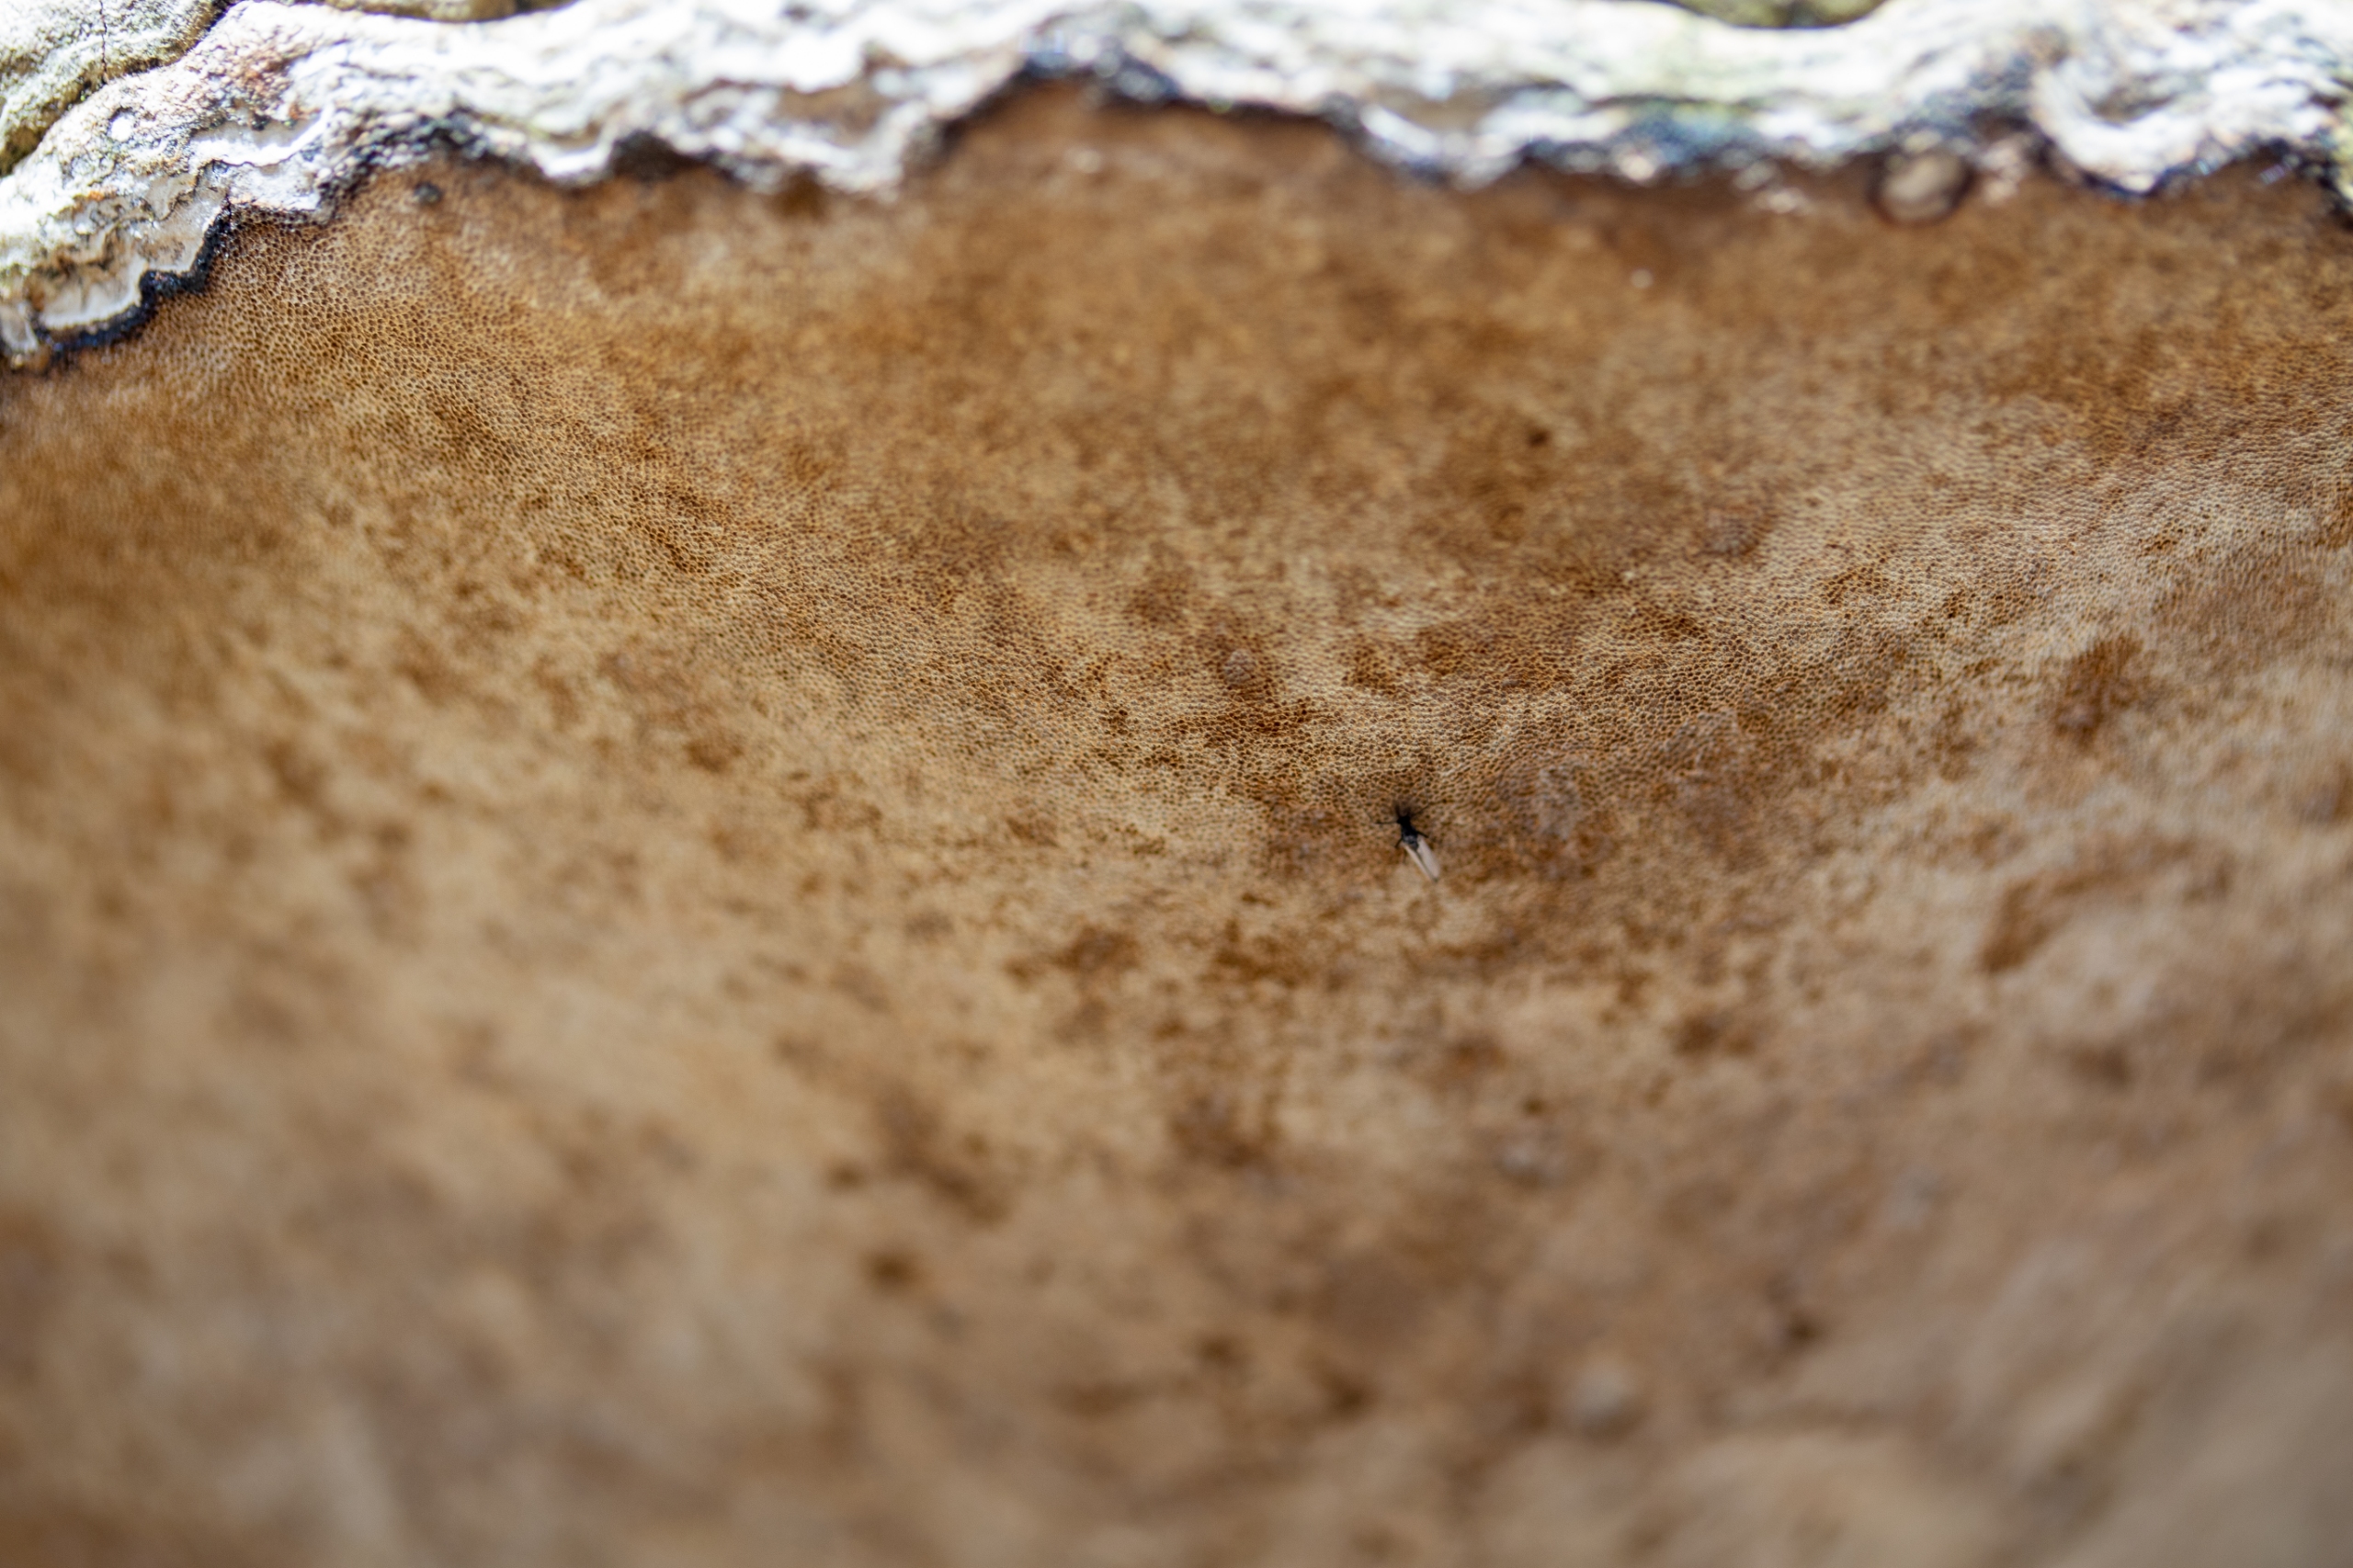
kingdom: Fungi
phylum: Basidiomycota
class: Agaricomycetes
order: Polyporales
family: Polyporaceae
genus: Fomes
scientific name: Fomes fomentarius
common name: Tøndersvamp
